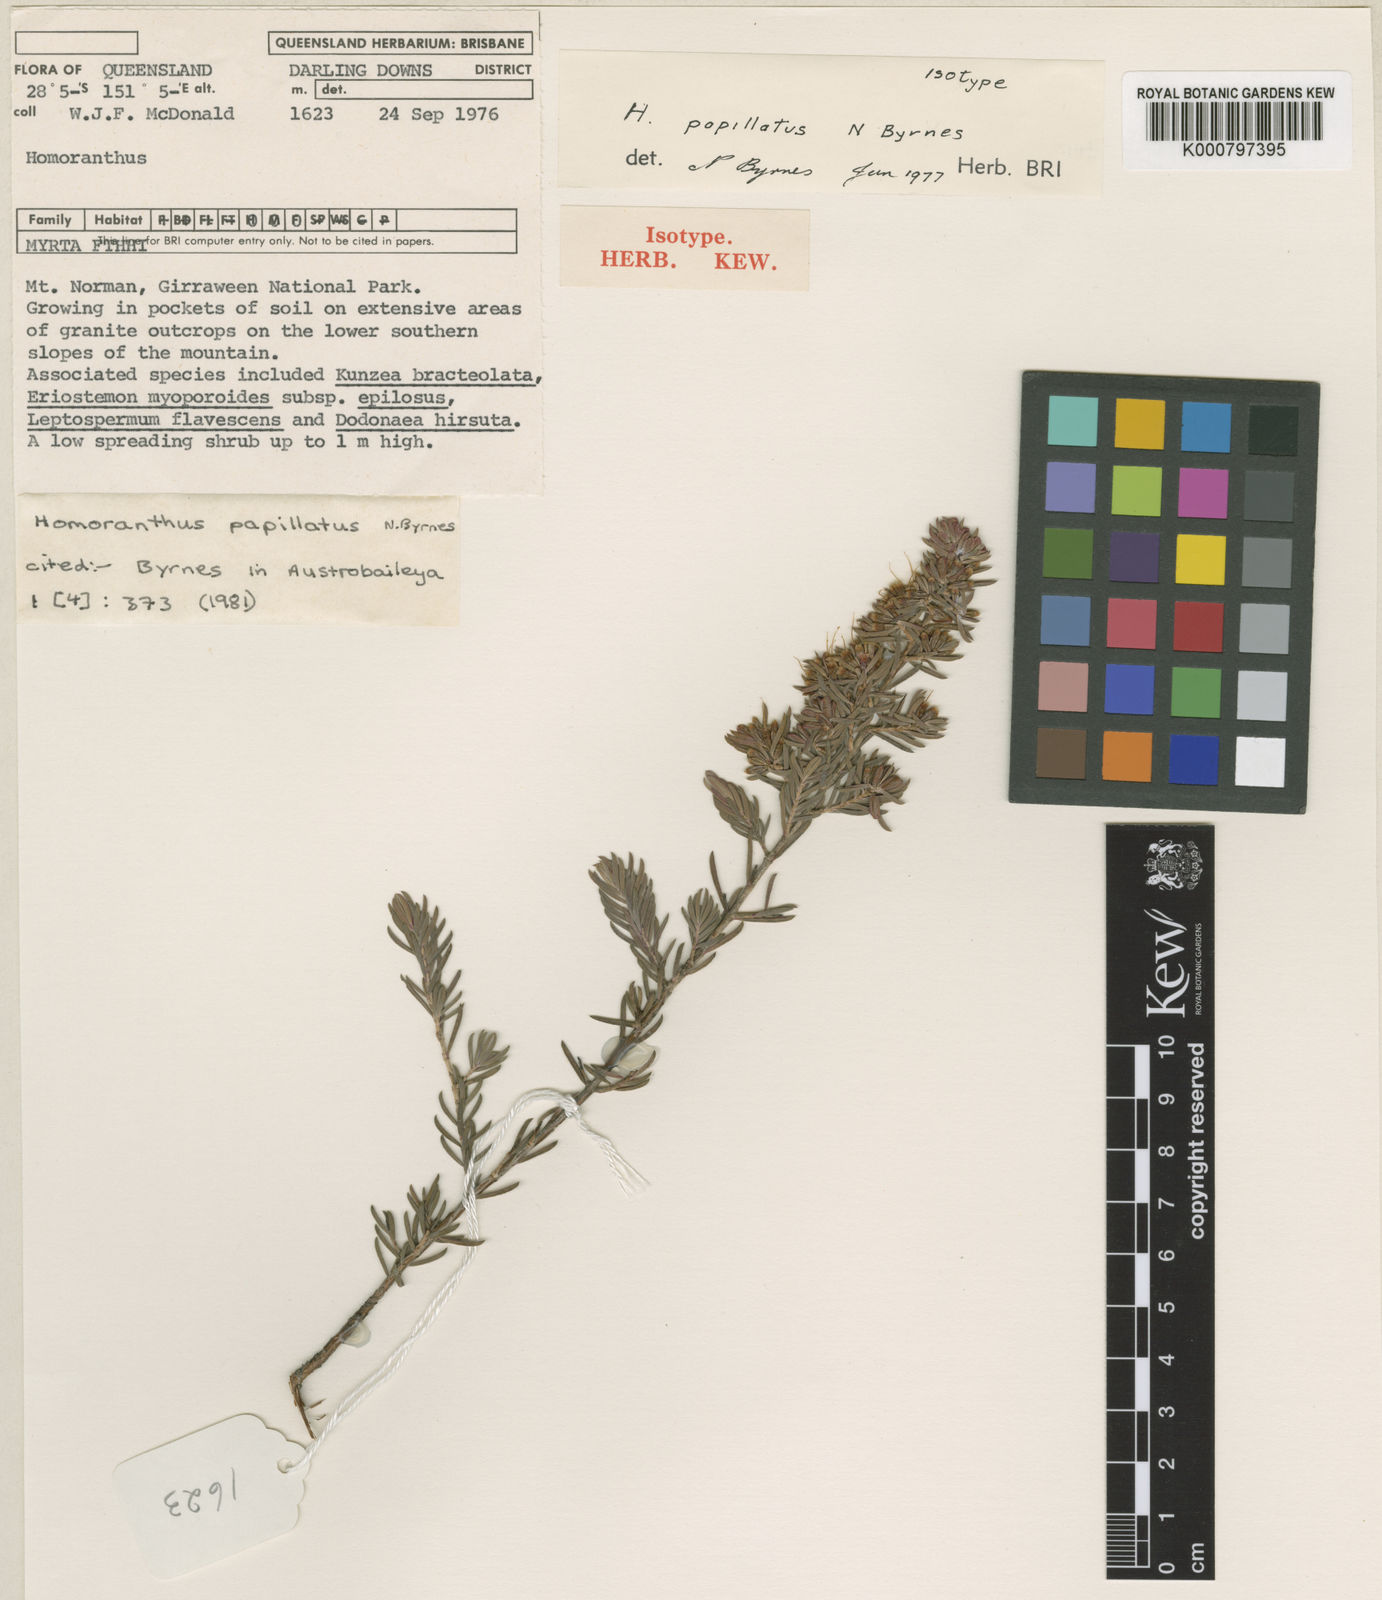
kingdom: Plantae
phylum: Tracheophyta
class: Magnoliopsida
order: Myrtales
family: Myrtaceae
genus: Homoranthus
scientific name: Homoranthus papillatus
